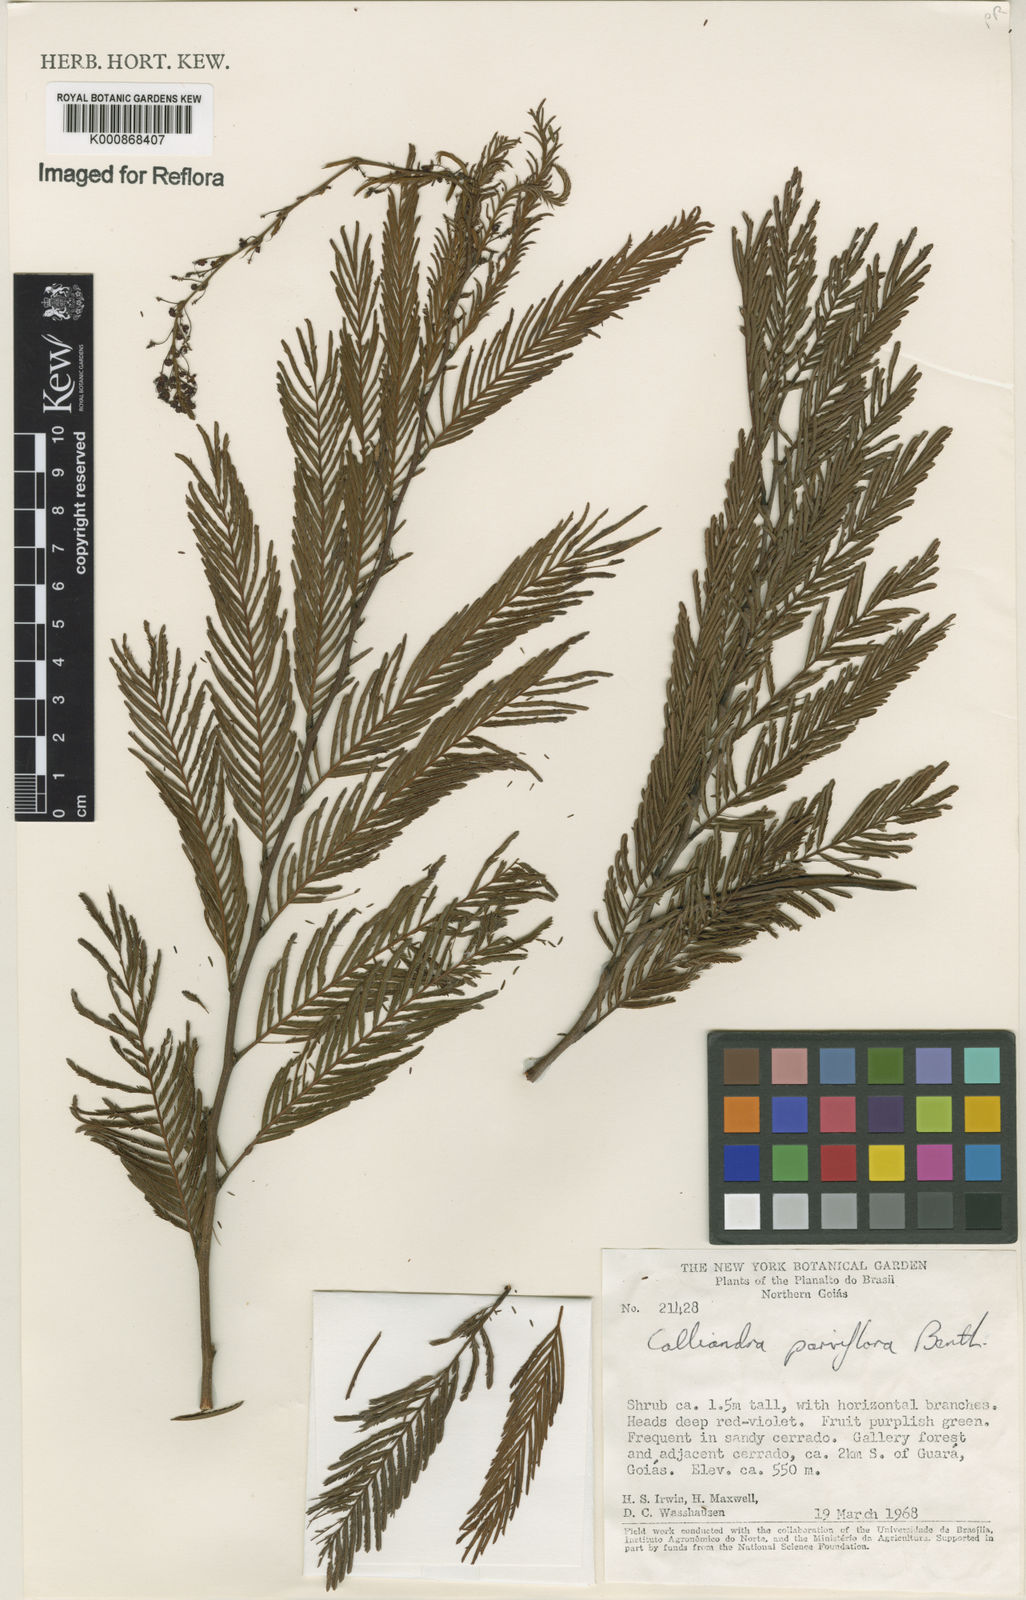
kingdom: Plantae
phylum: Tracheophyta
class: Magnoliopsida
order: Fabales
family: Fabaceae
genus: Calliandra
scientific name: Calliandra parviflora
